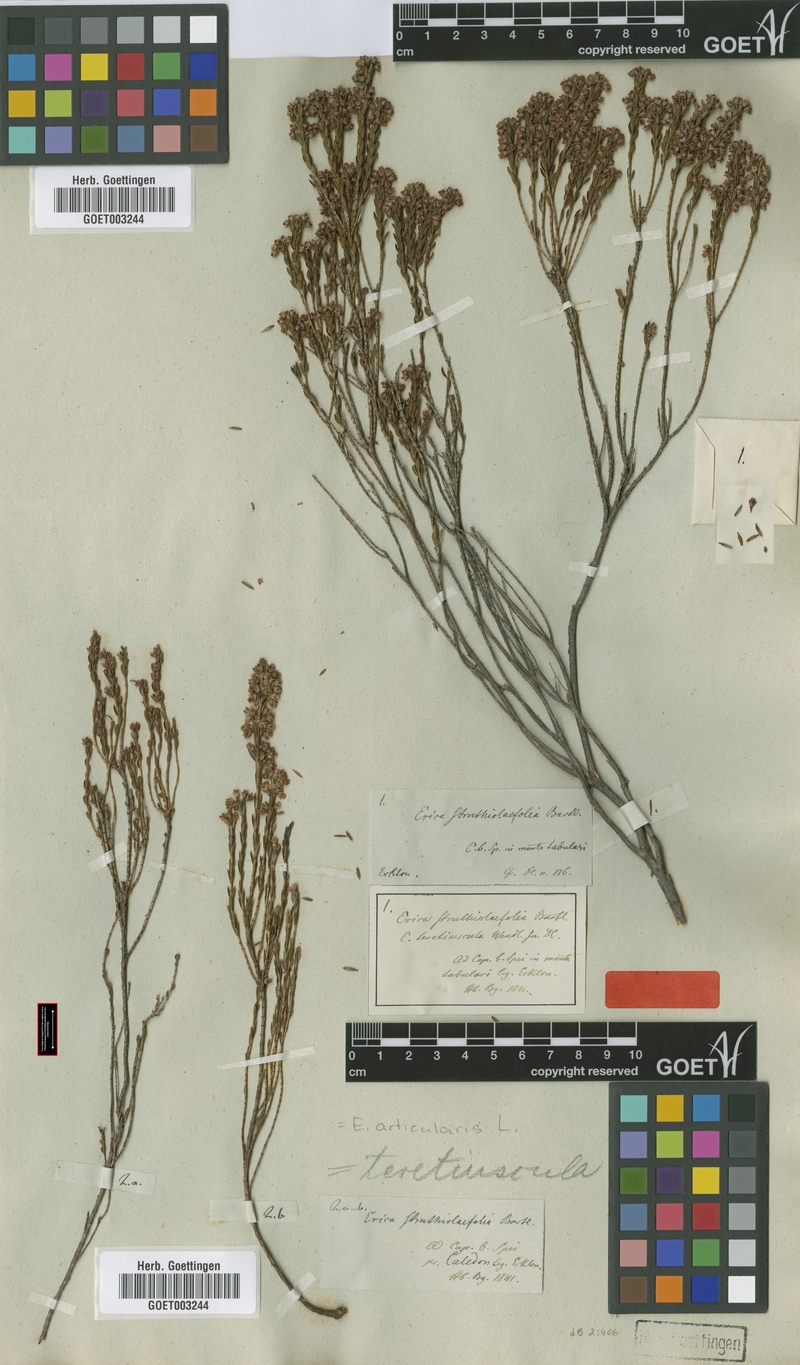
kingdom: Plantae
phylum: Tracheophyta
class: Magnoliopsida
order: Ericales
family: Ericaceae
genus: Erica
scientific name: Erica articularis
